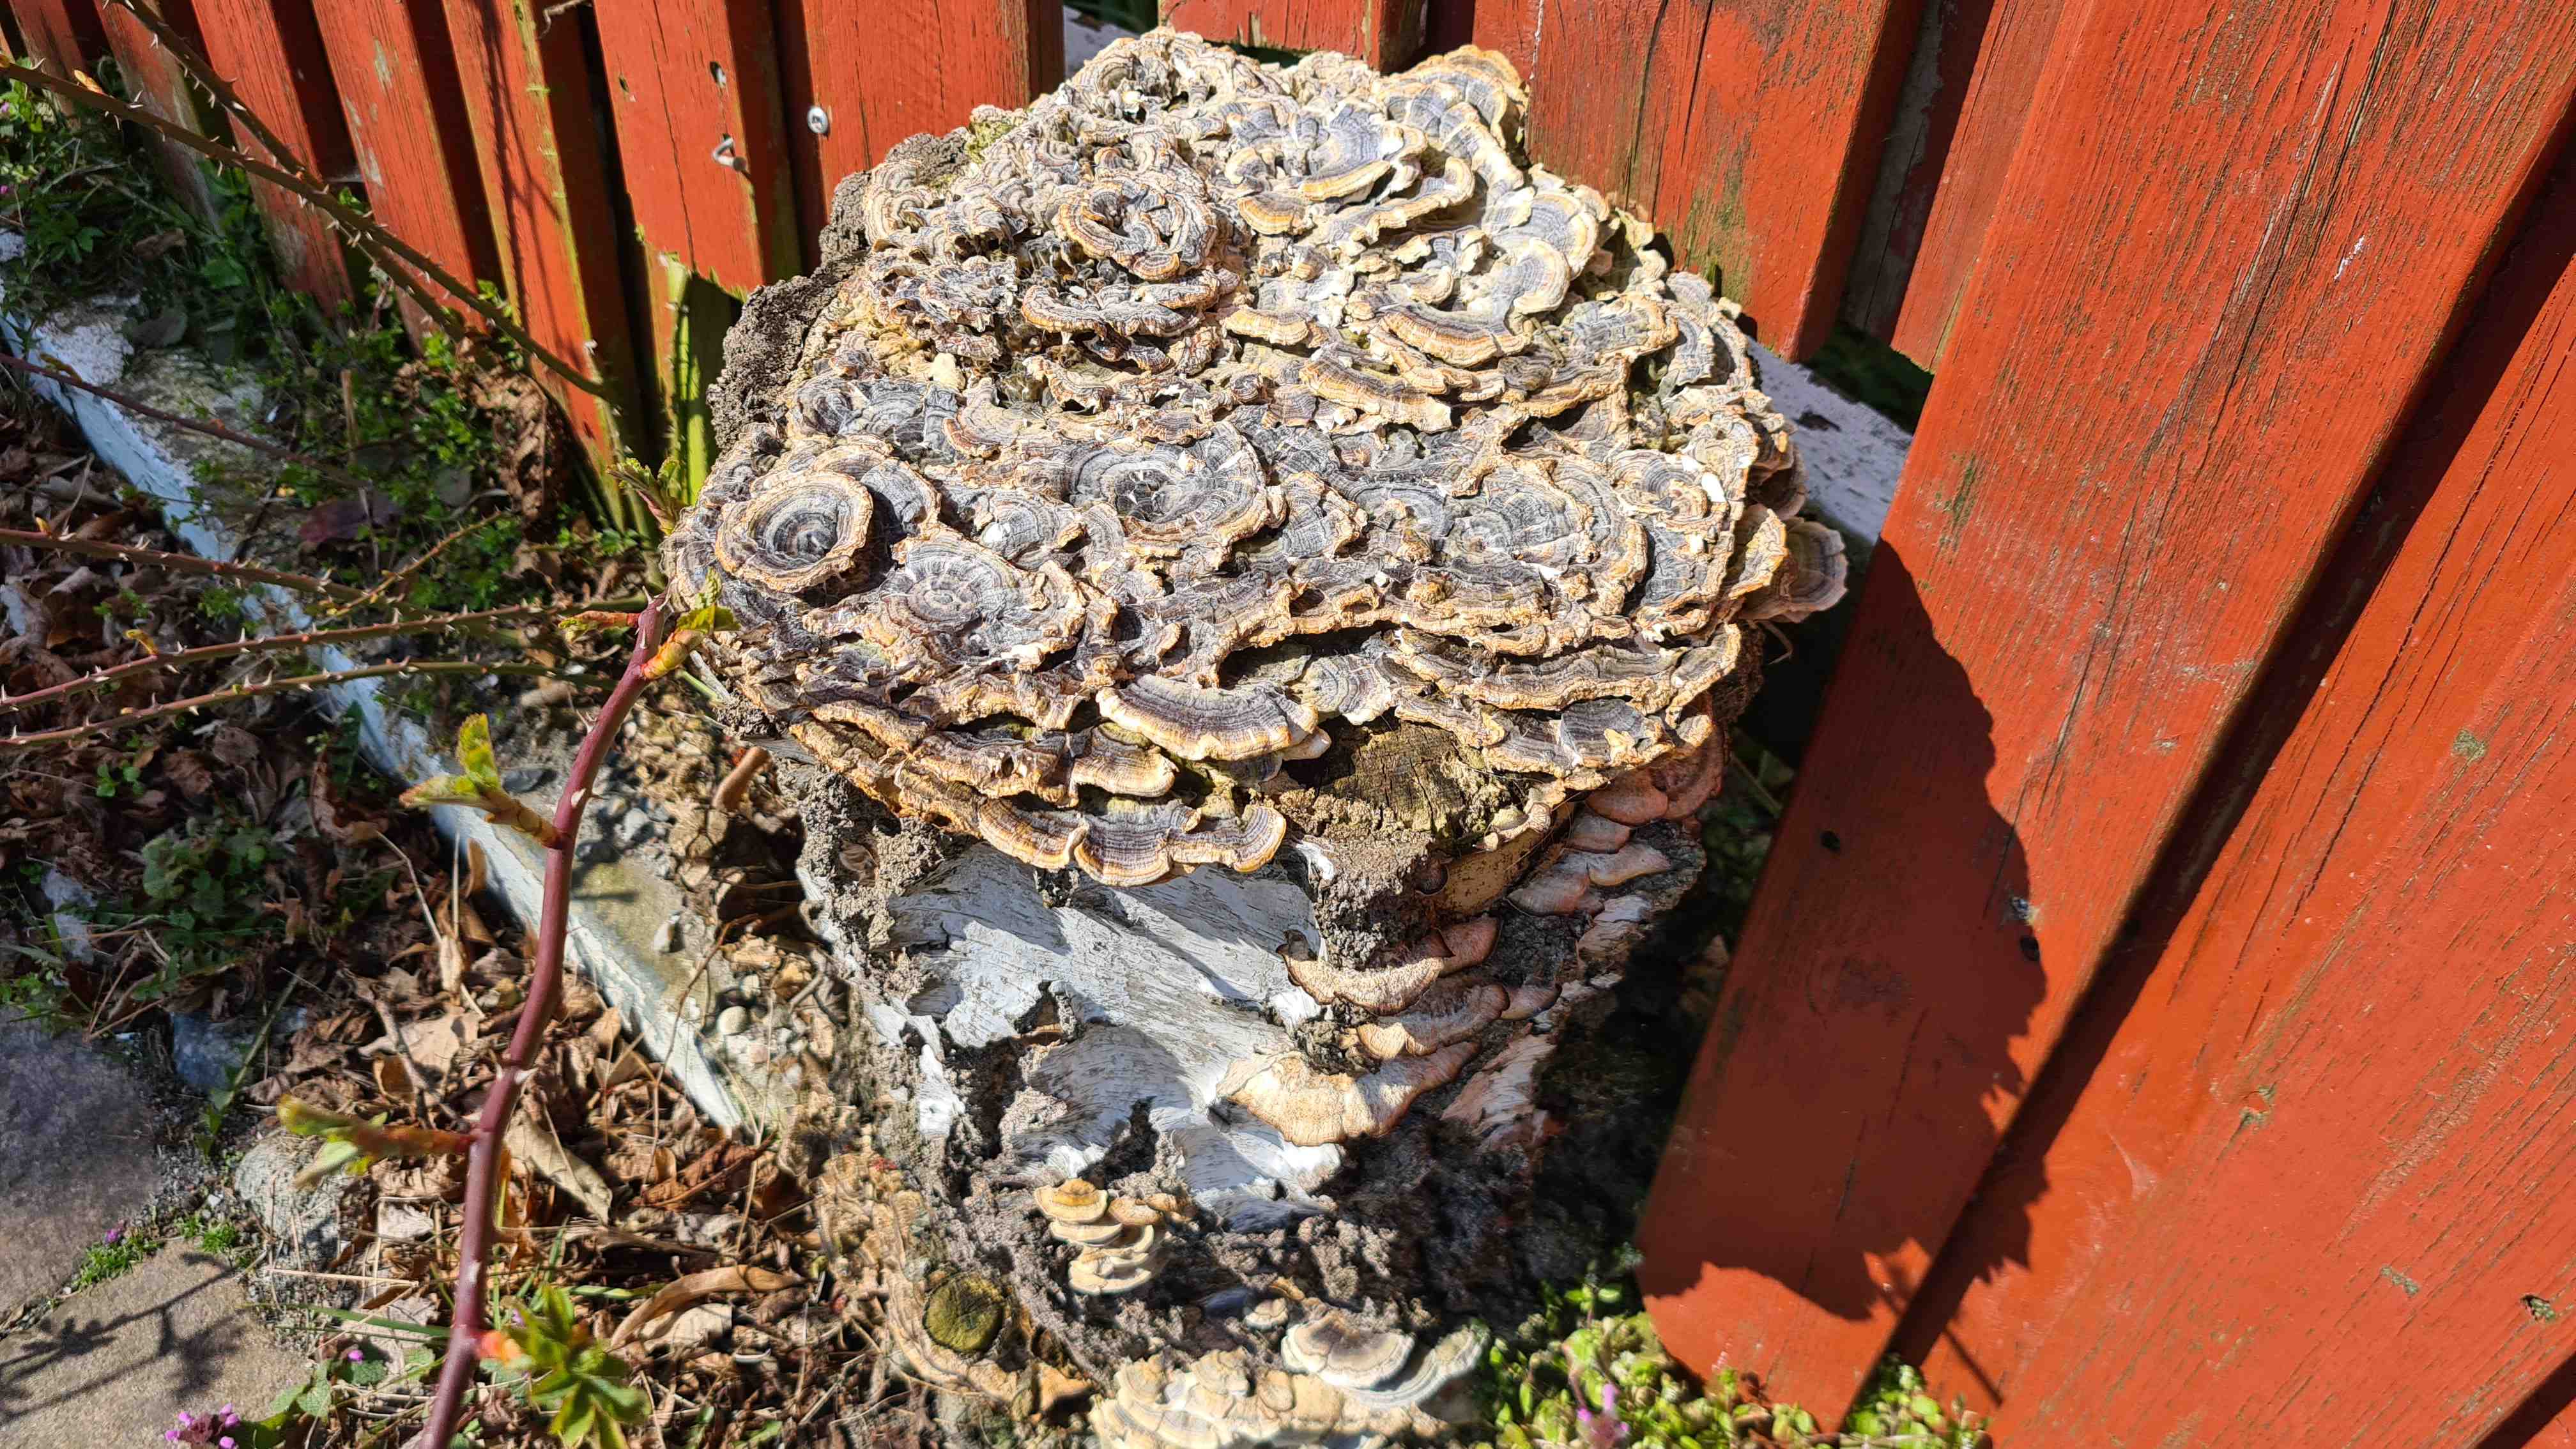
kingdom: Fungi
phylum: Basidiomycota
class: Agaricomycetes
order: Polyporales
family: Polyporaceae
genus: Trametes
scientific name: Trametes versicolor
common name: broget læderporesvamp
